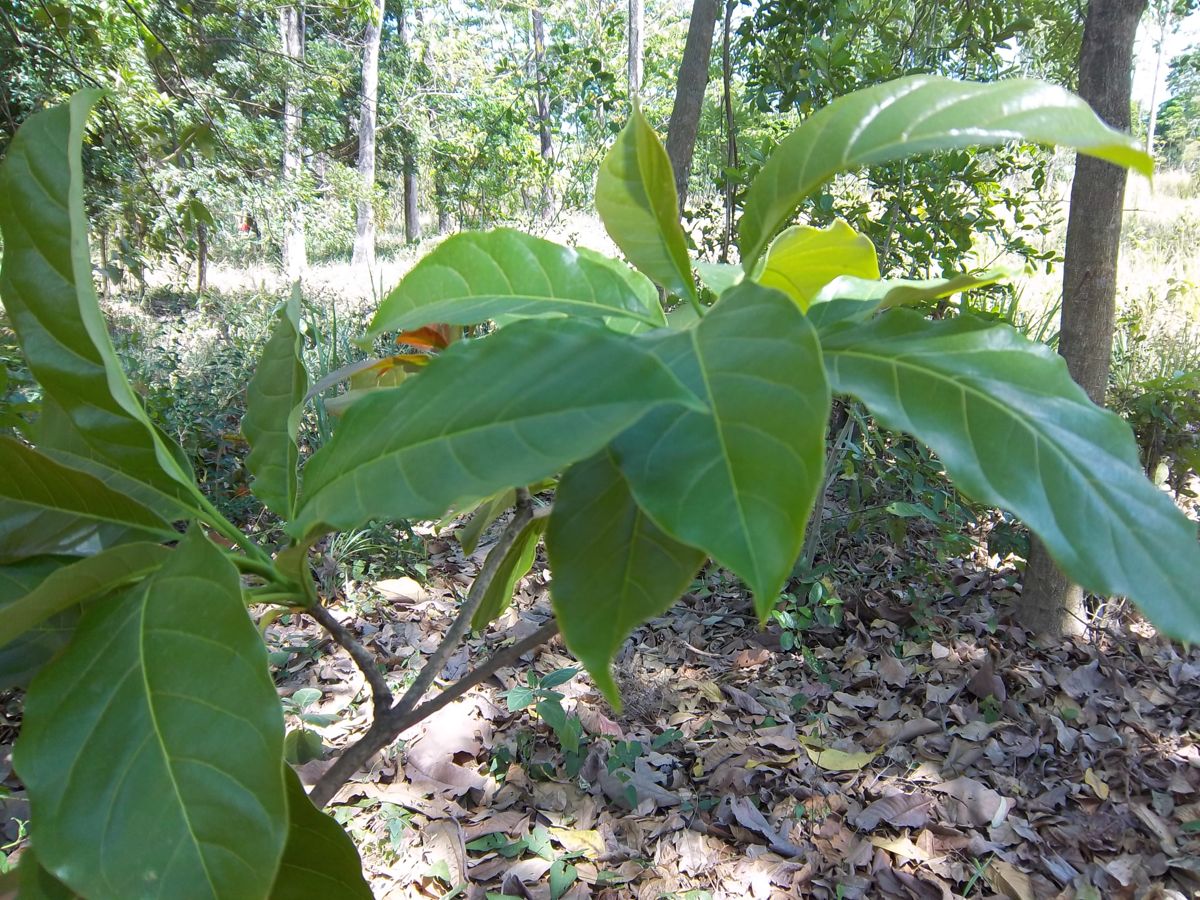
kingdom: Plantae
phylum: Tracheophyta
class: Magnoliopsida
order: Myrtales
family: Combretaceae
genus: Terminalia
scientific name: Terminalia
